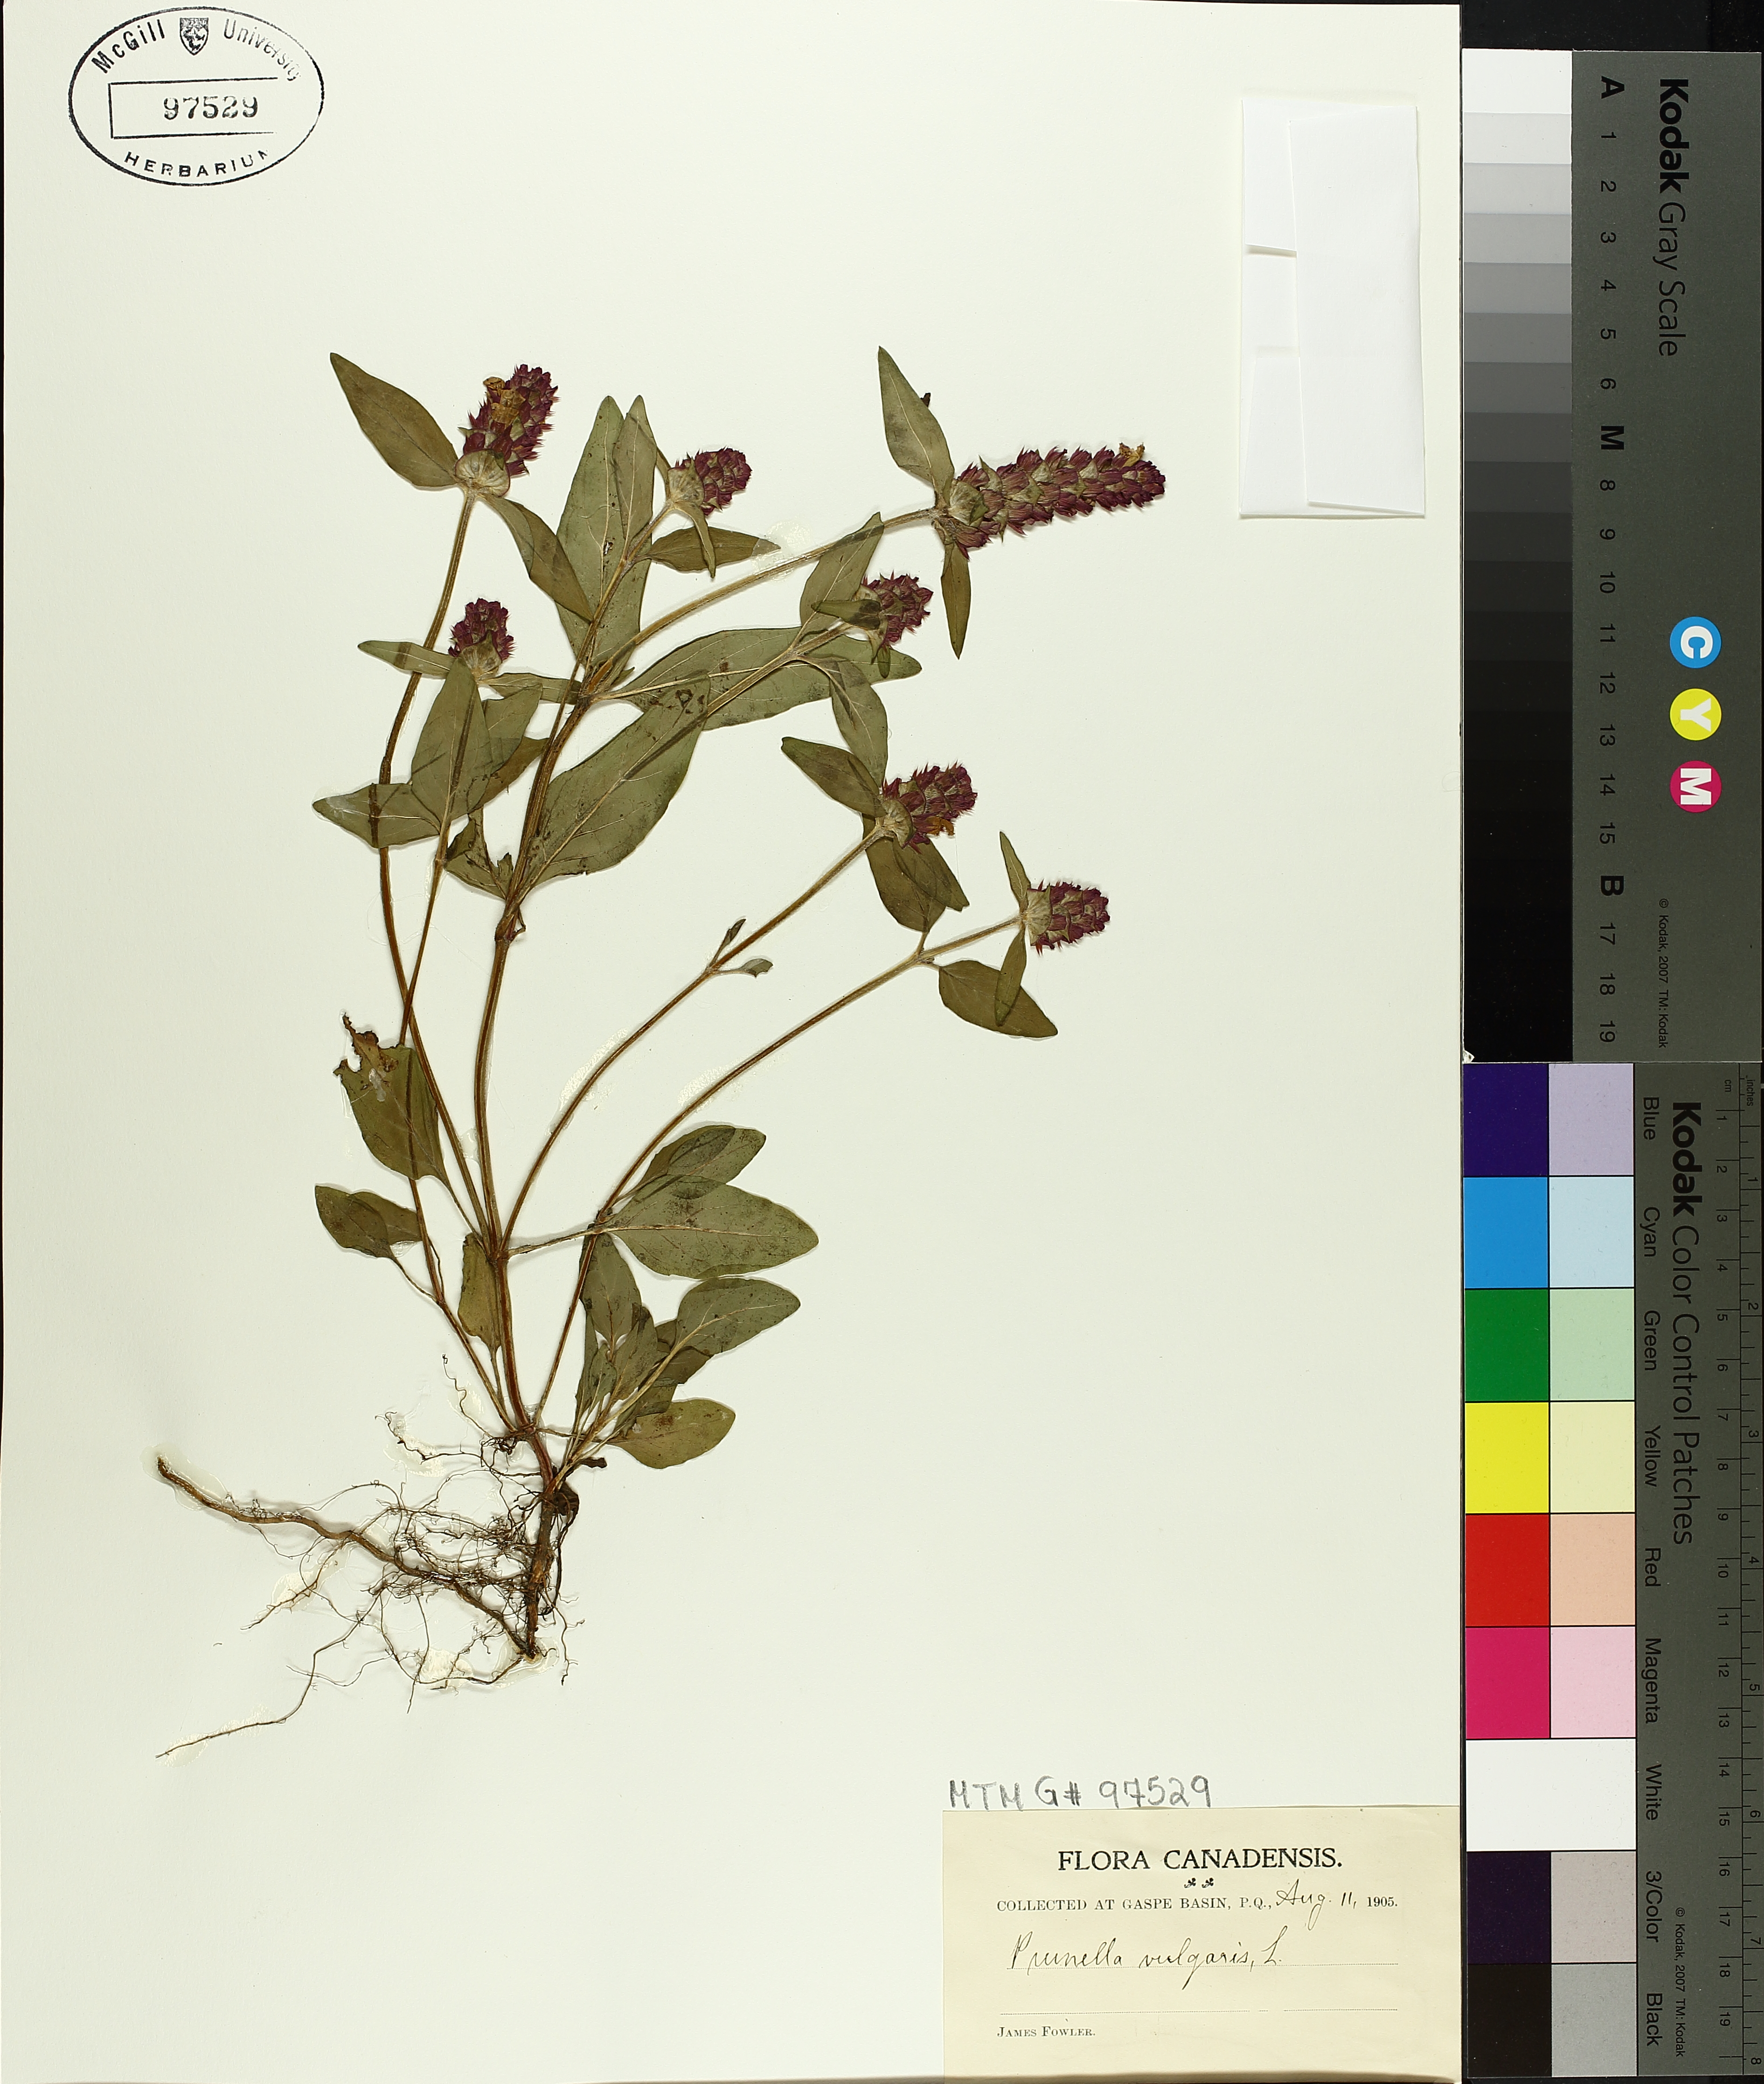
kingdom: Plantae
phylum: Tracheophyta
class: Magnoliopsida
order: Lamiales
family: Lamiaceae
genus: Prunella
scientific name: Prunella vulgaris
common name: Heal-all
